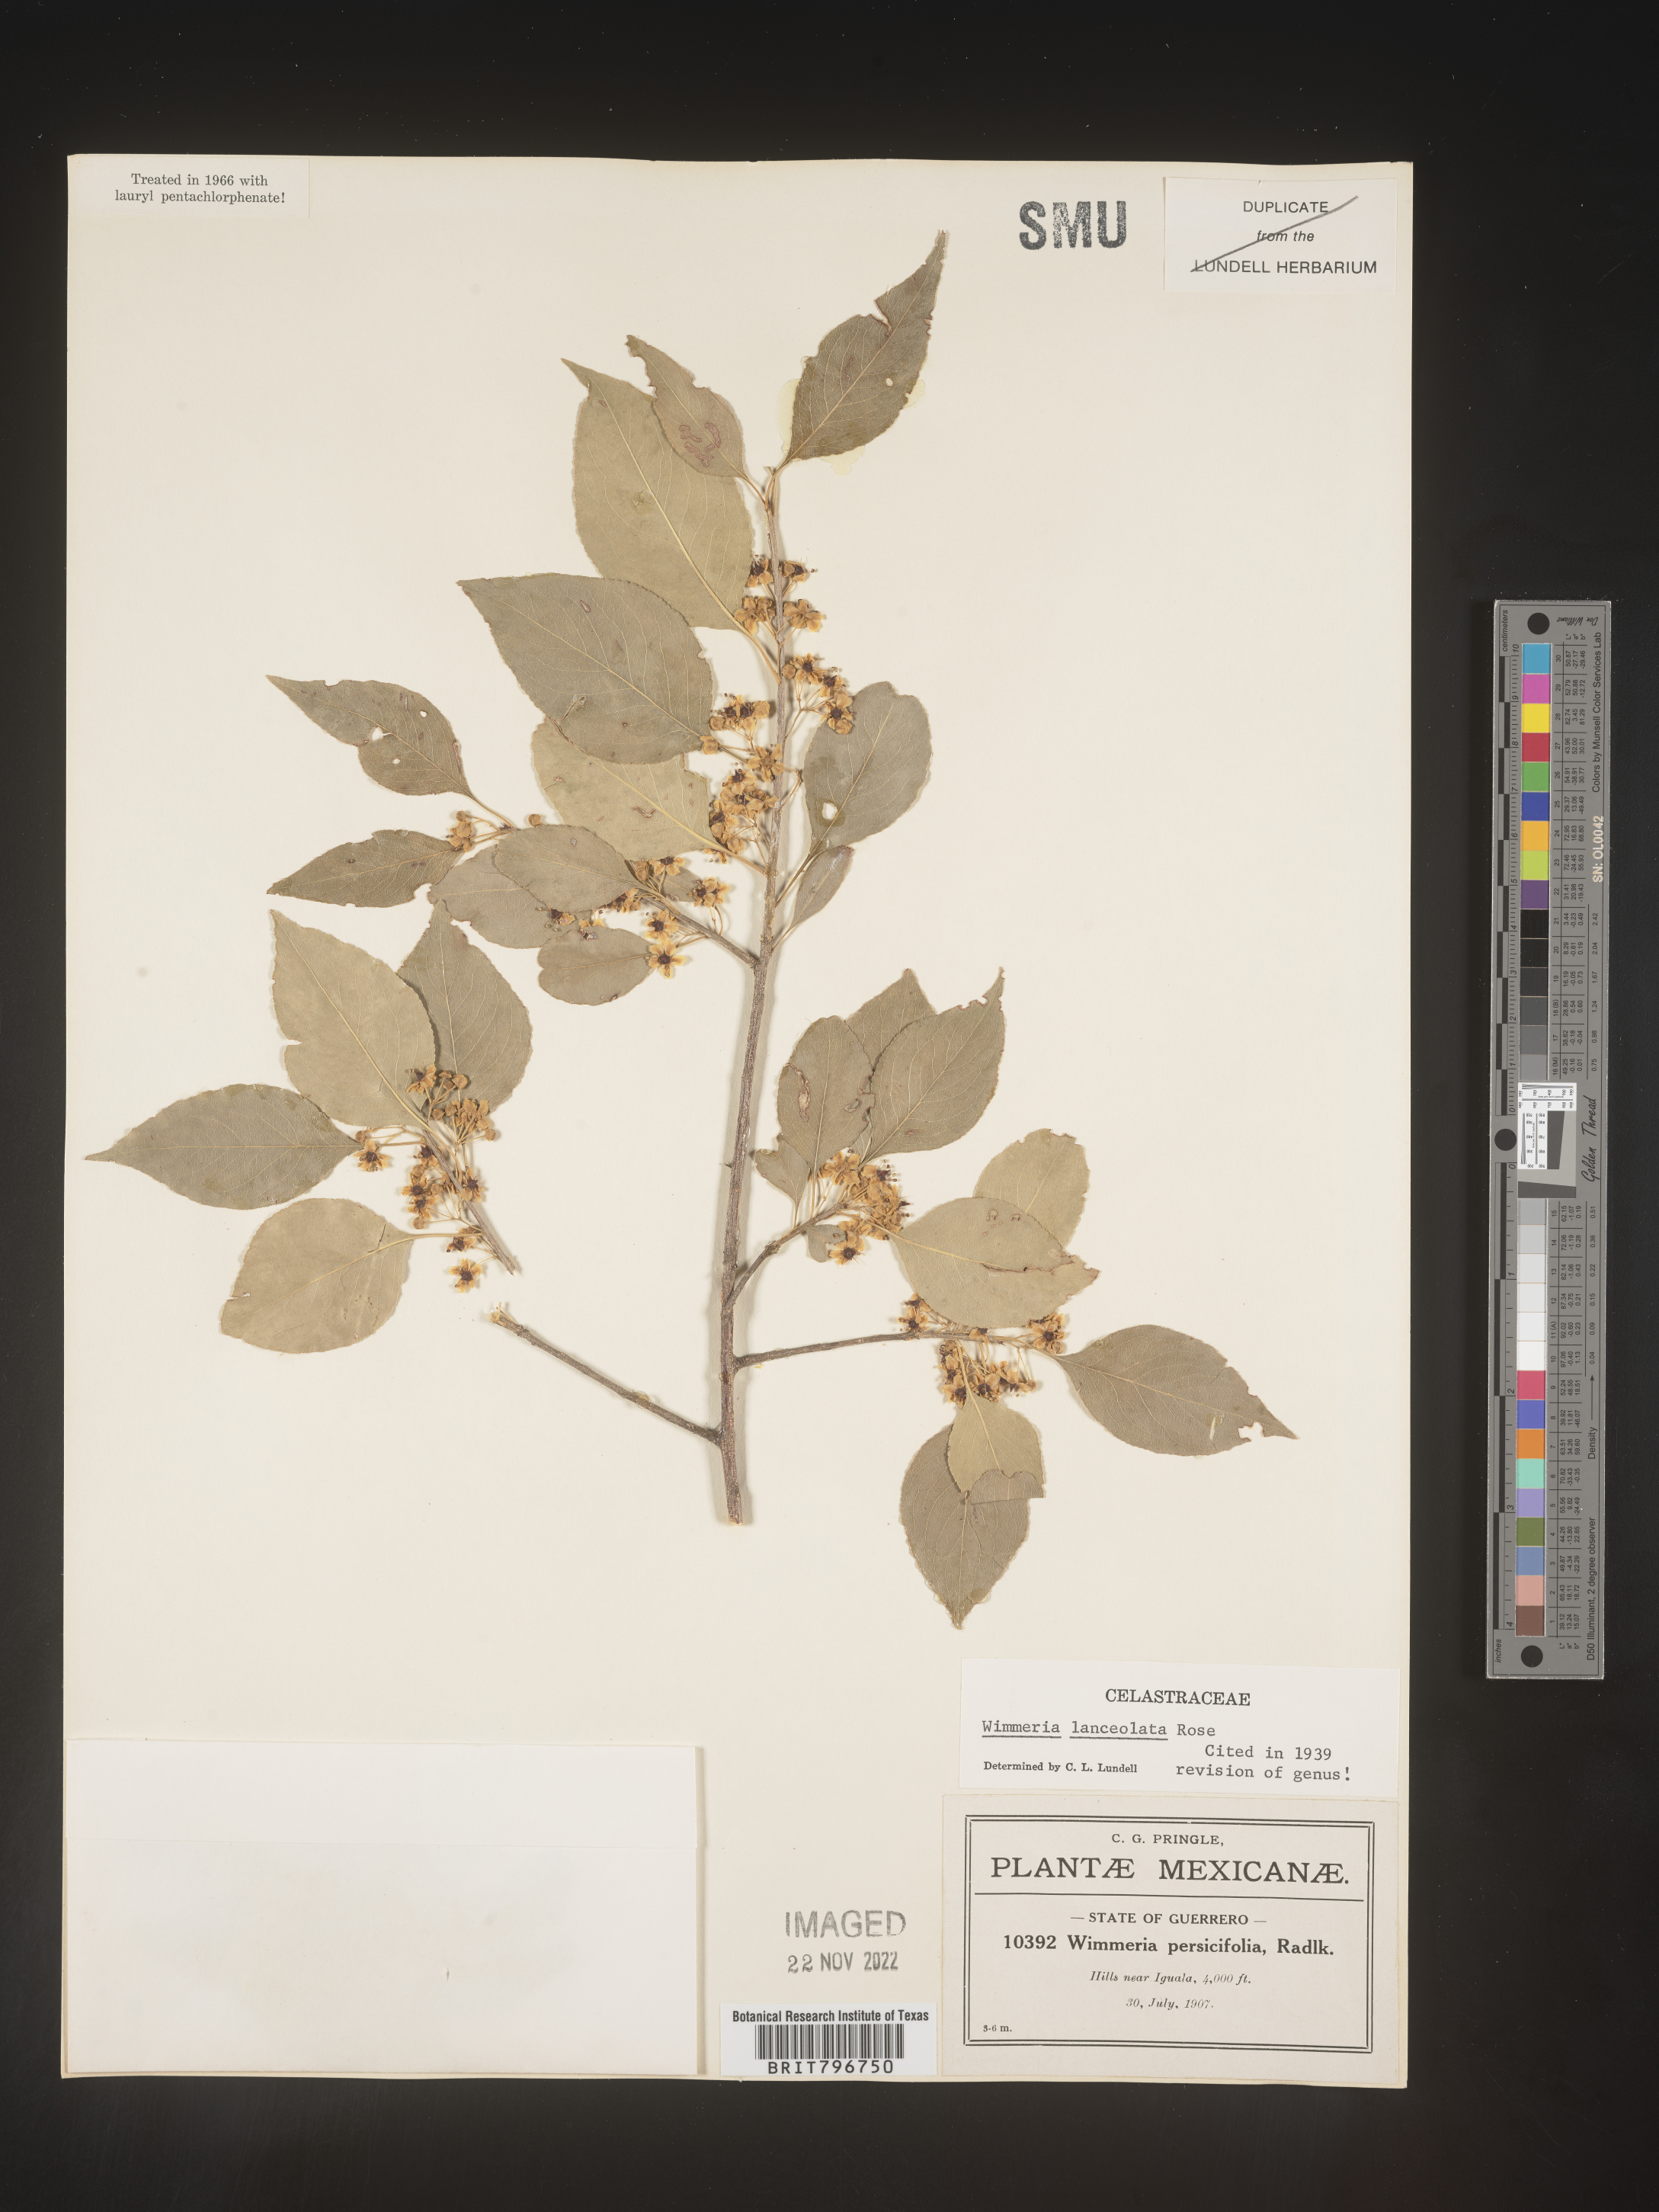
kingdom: Plantae
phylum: Tracheophyta
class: Magnoliopsida
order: Celastrales
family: Celastraceae
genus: Wimmeria
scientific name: Wimmeria
